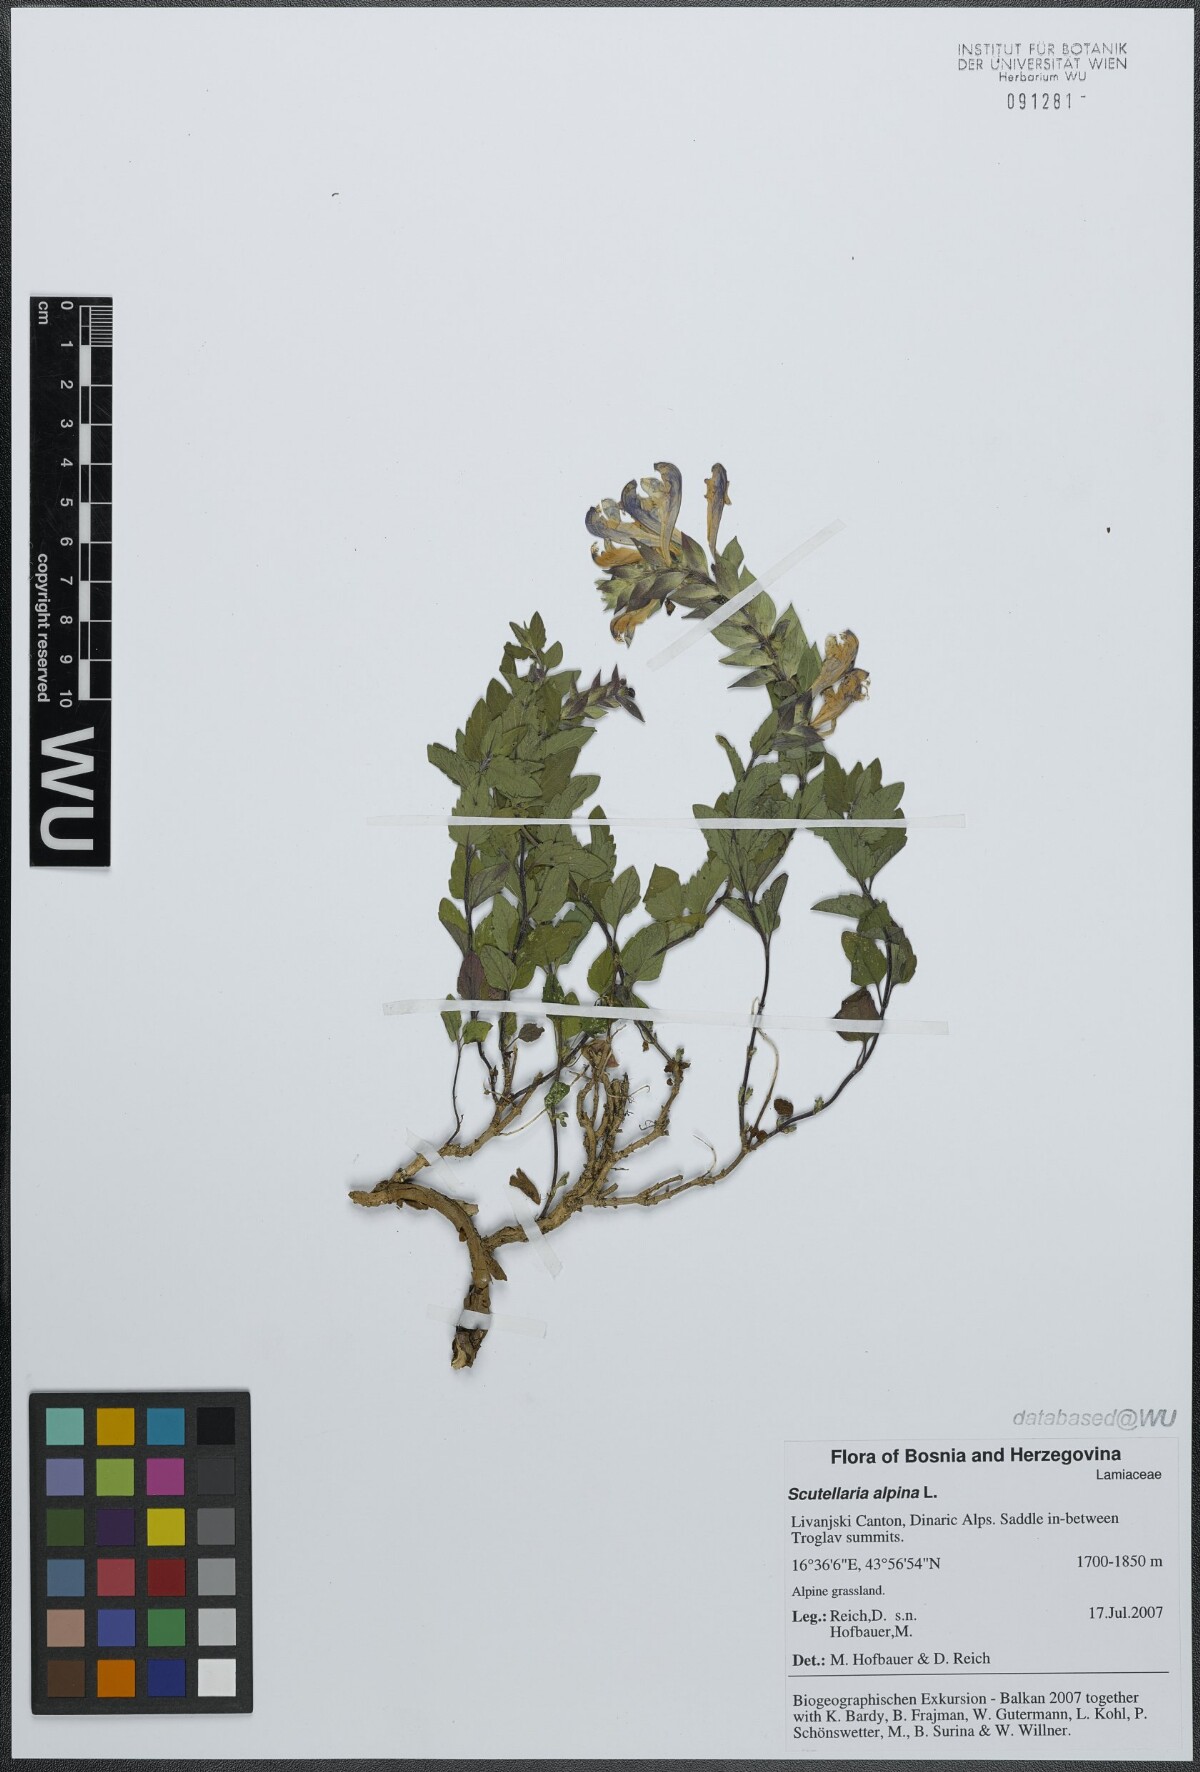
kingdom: Plantae
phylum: Tracheophyta
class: Magnoliopsida
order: Lamiales
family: Lamiaceae
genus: Scutellaria
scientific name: Scutellaria alpina
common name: Alpine scullcap
